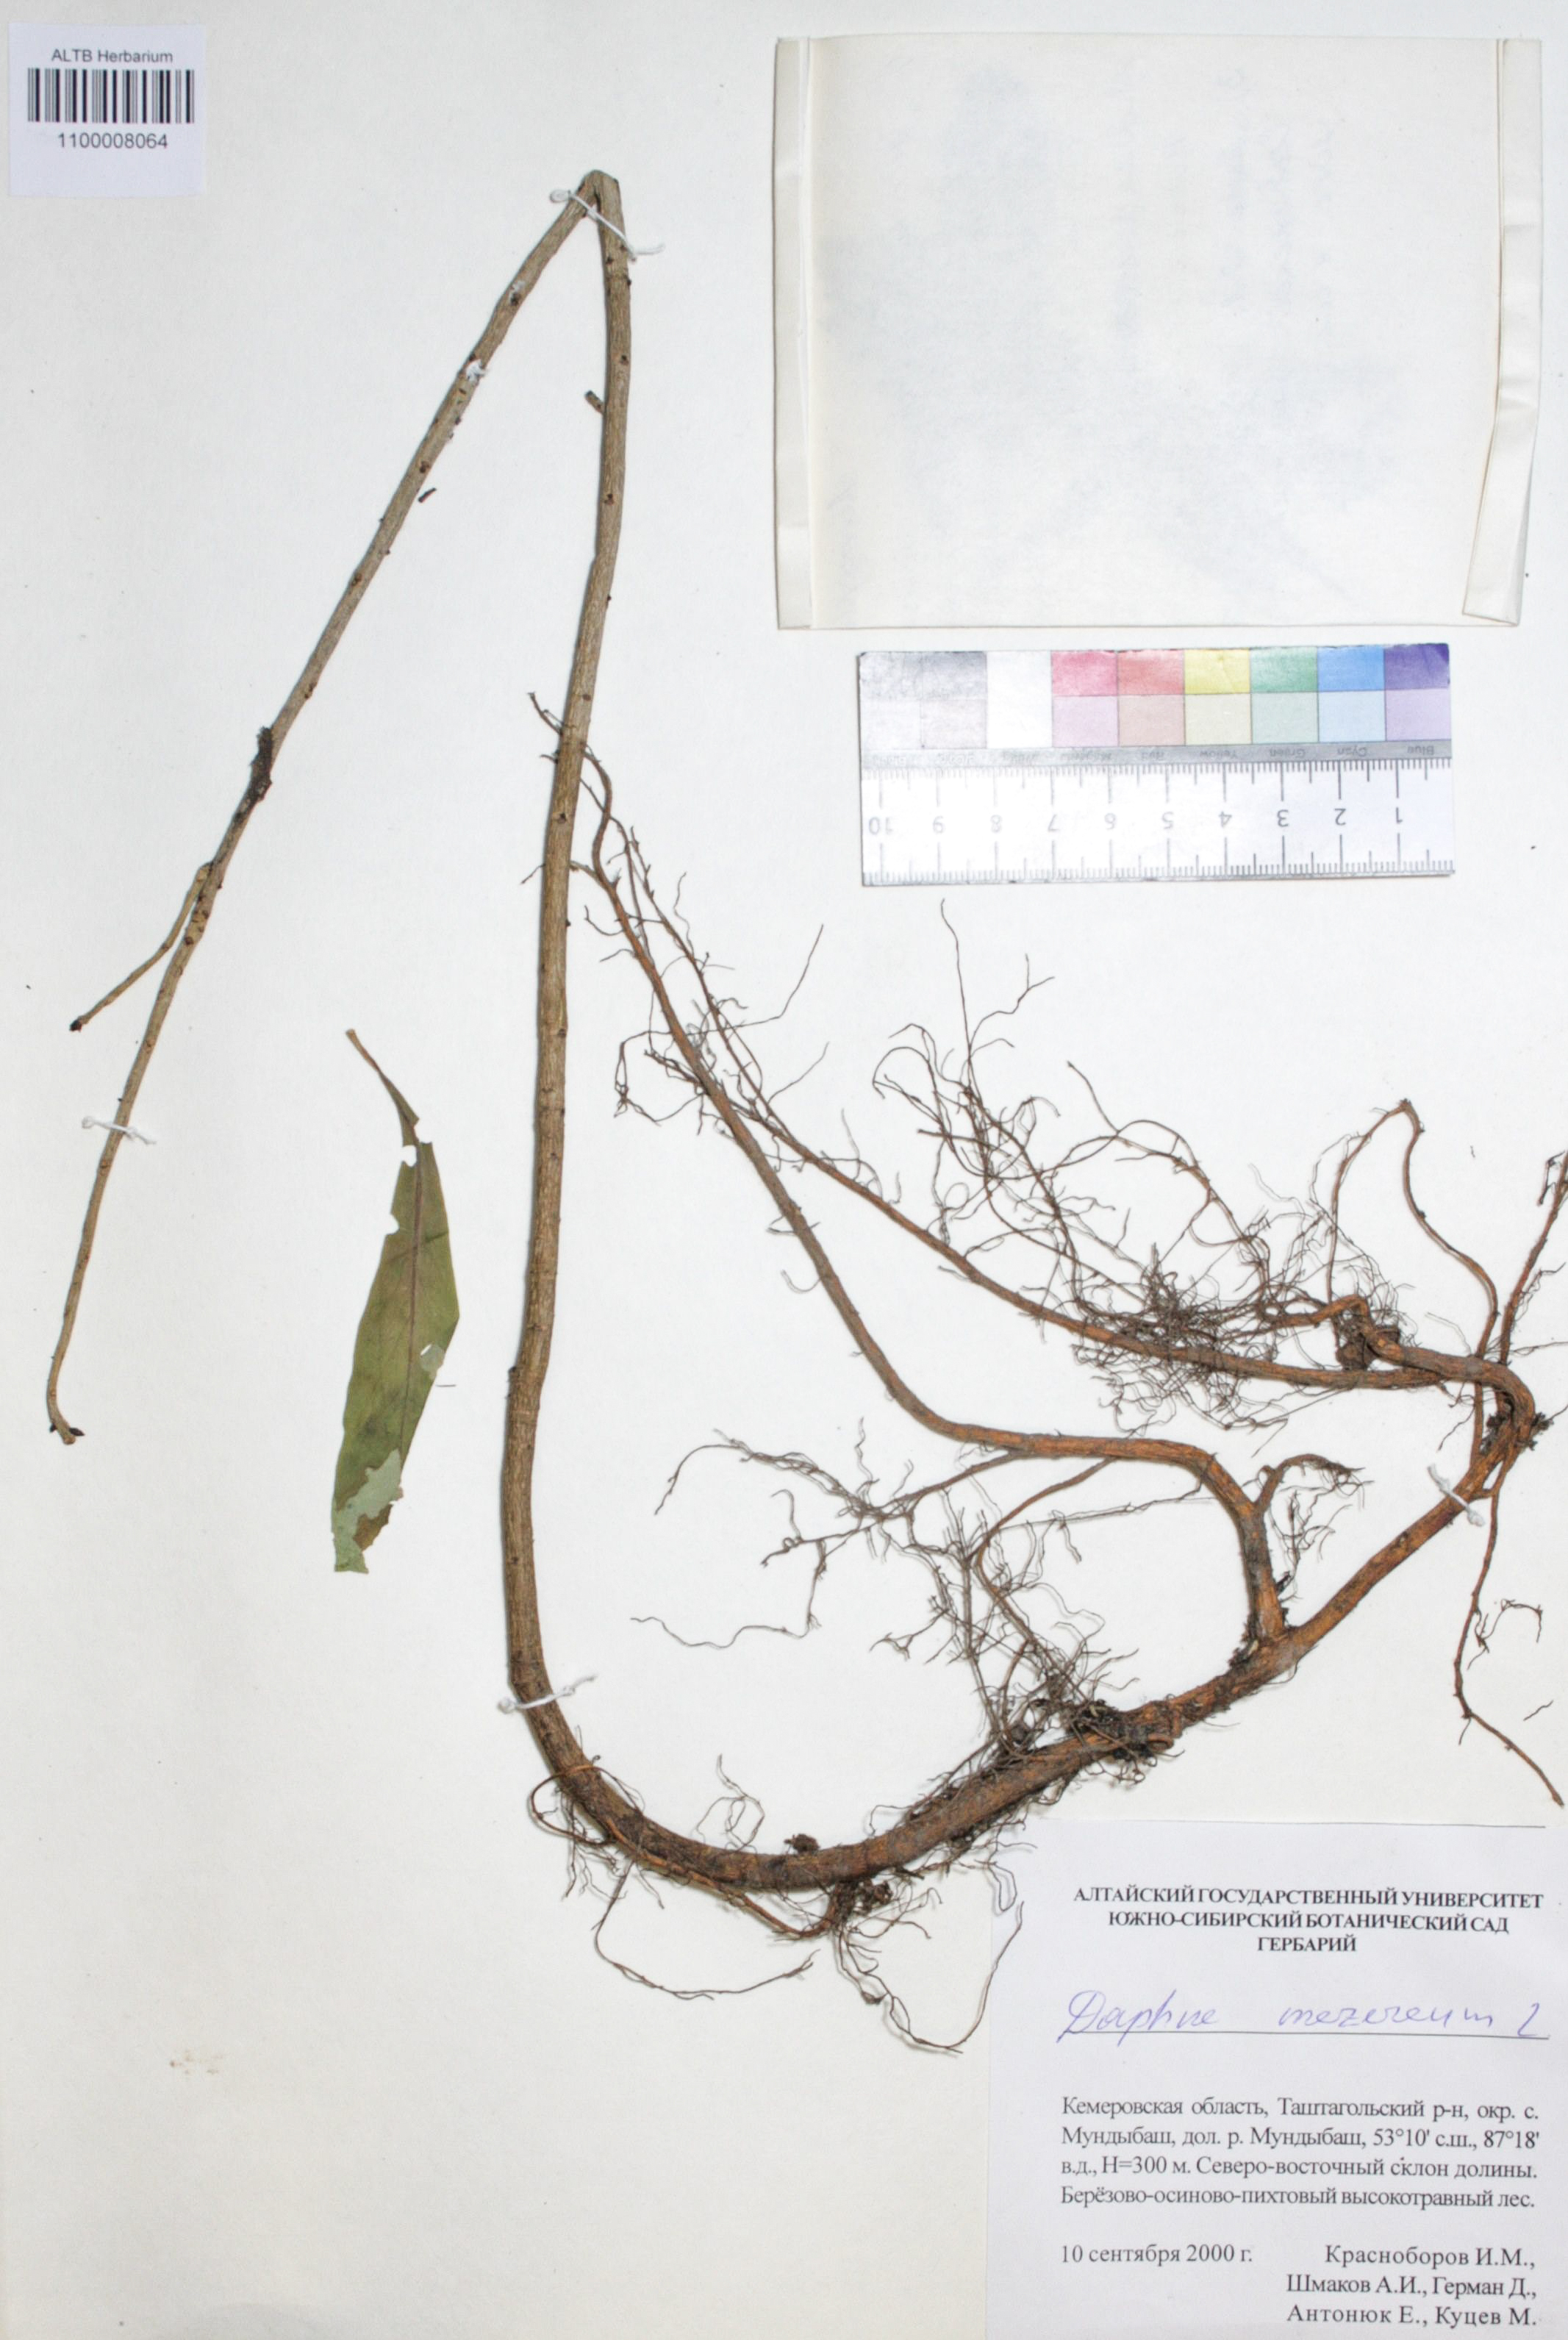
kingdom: Plantae
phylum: Tracheophyta
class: Magnoliopsida
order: Malvales
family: Thymelaeaceae
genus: Daphne
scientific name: Daphne mezereum
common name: Mezereon
